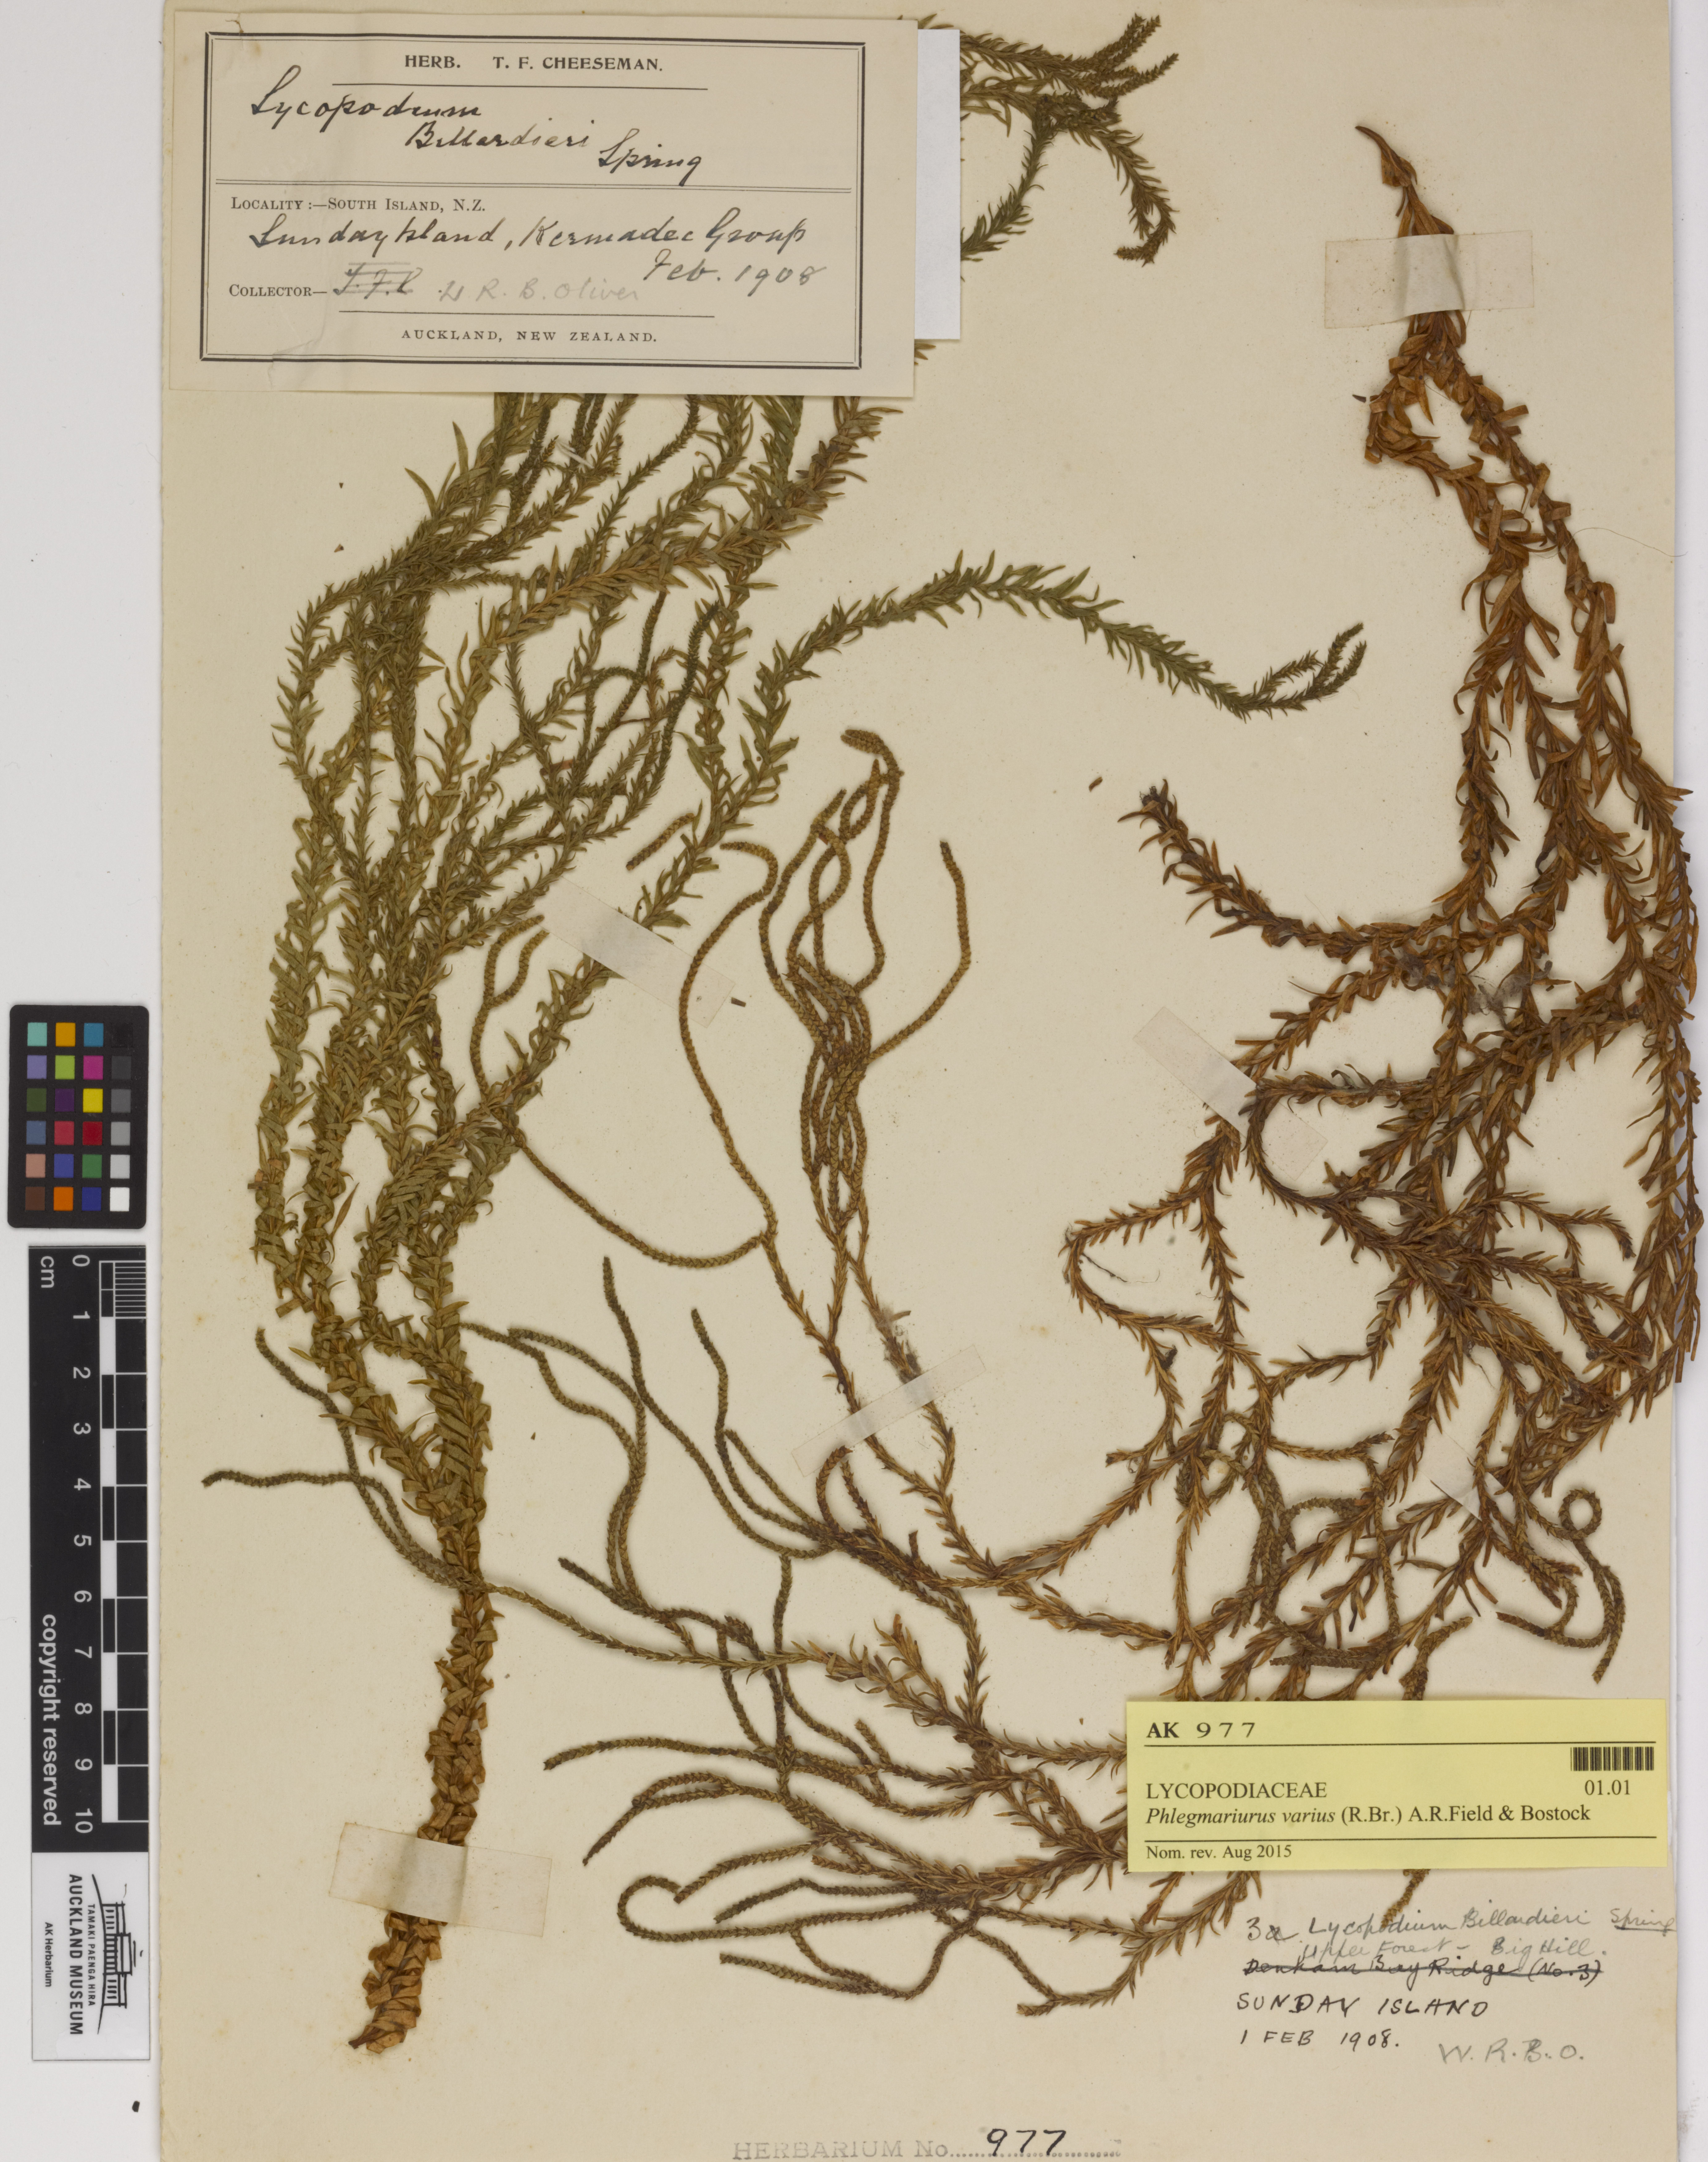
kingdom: Plantae
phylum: Tracheophyta
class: Lycopodiopsida
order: Lycopodiales
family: Lycopodiaceae
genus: Phlegmariurus
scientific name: Phlegmariurus billardierei
